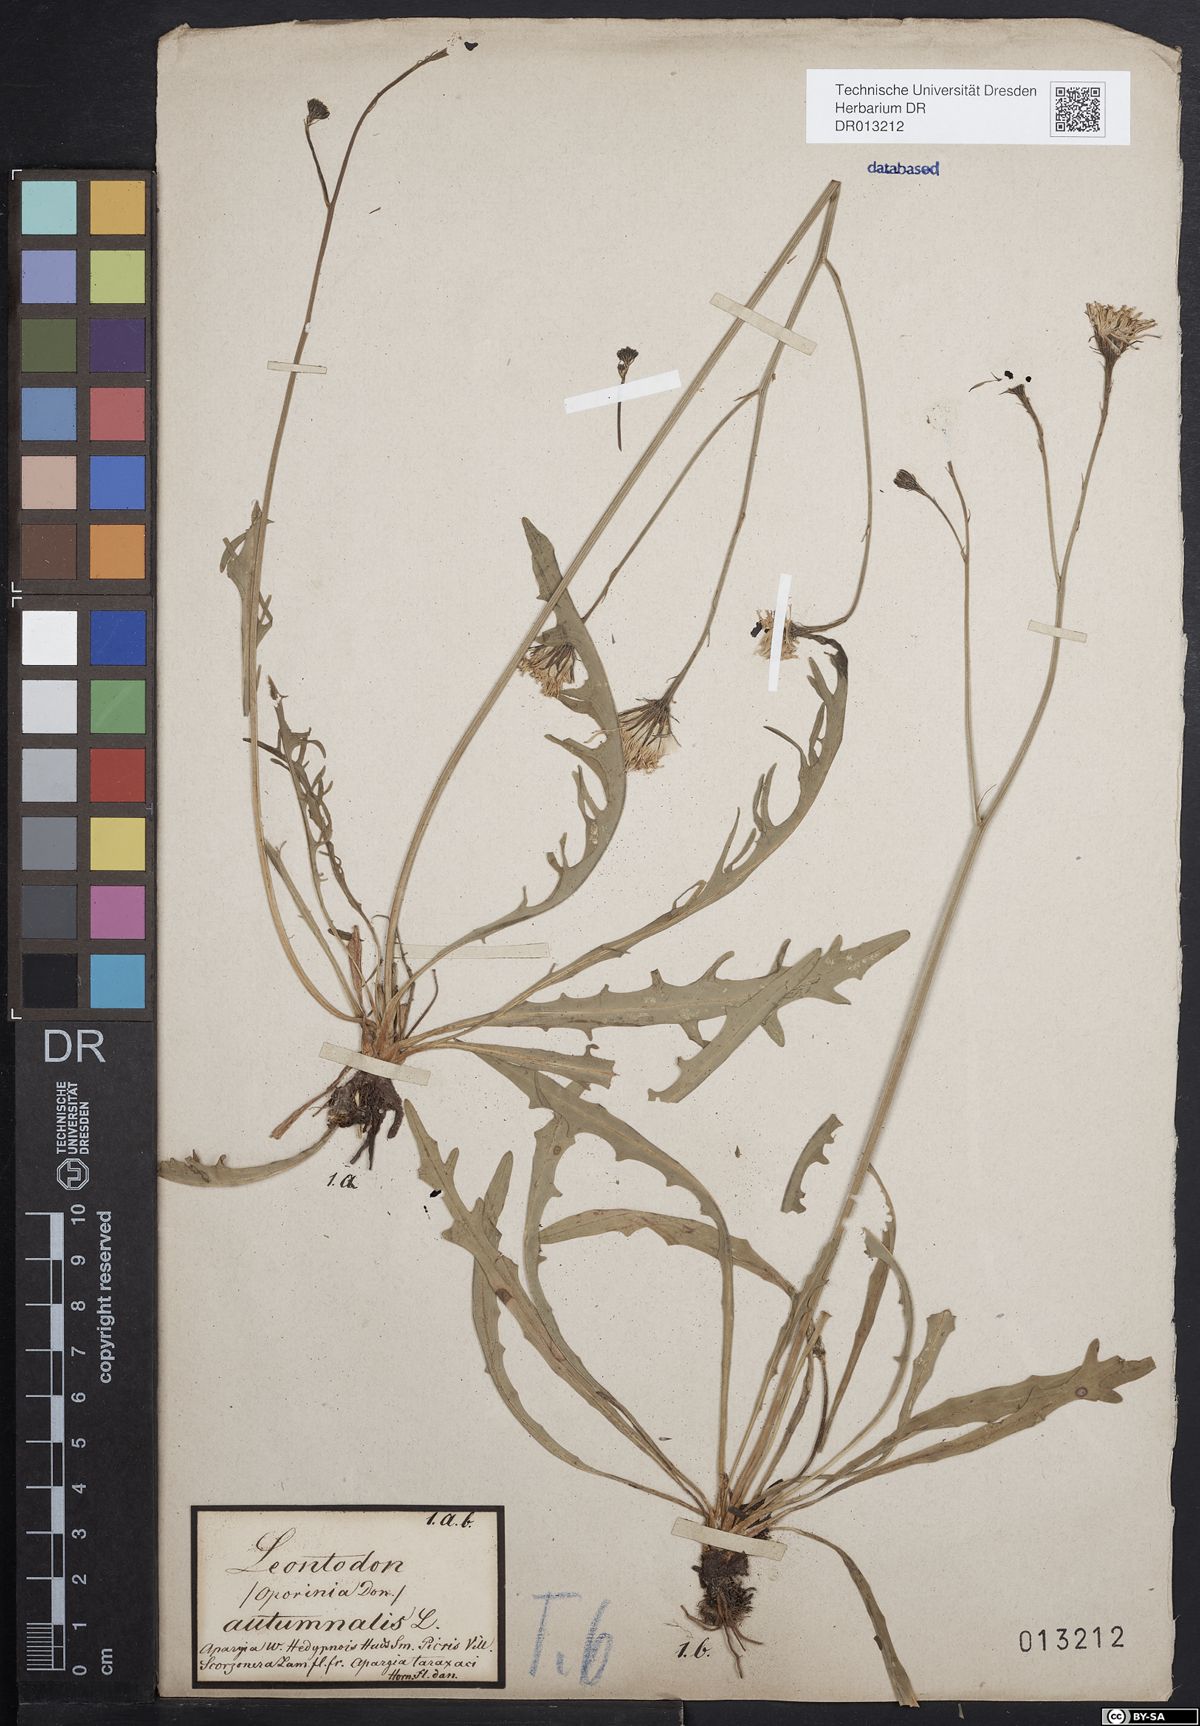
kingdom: Plantae
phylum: Tracheophyta
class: Magnoliopsida
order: Asterales
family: Asteraceae
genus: Scorzoneroides
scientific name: Scorzoneroides autumnalis
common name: Autumn hawkbit
